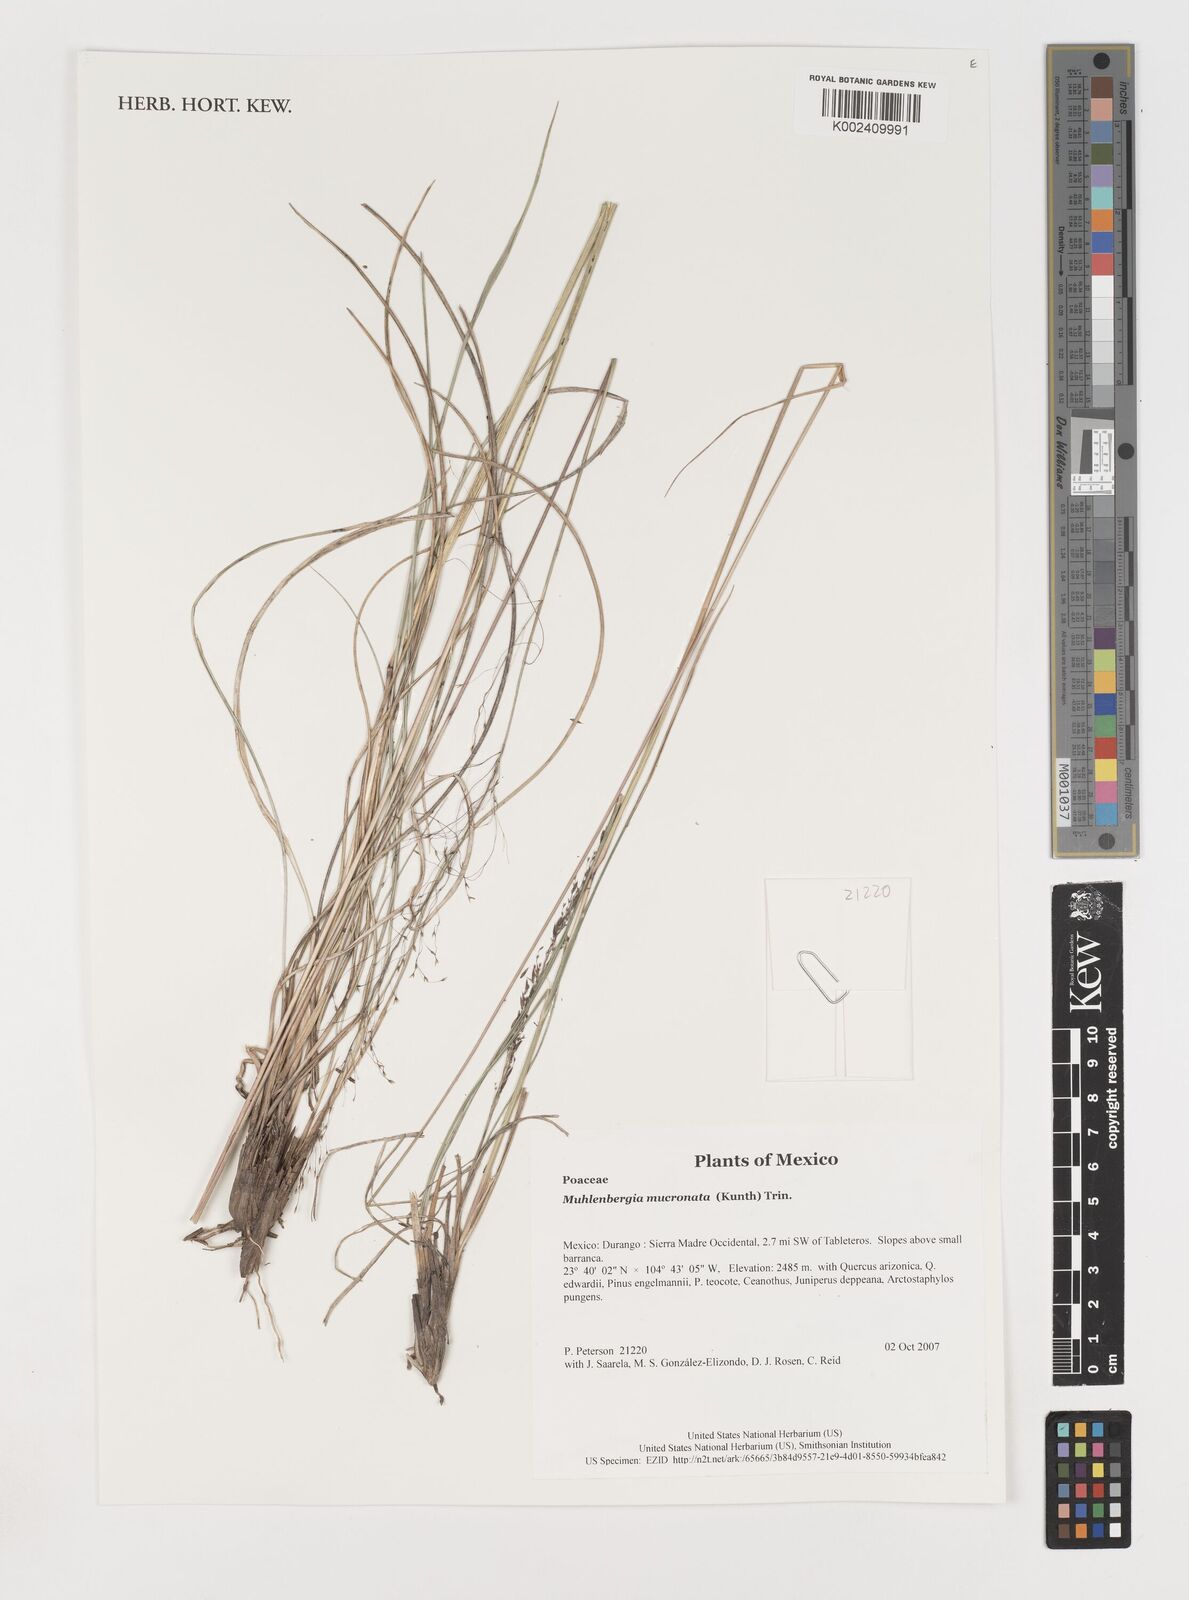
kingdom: Plantae
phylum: Tracheophyta
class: Liliopsida
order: Poales
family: Poaceae
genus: Muhlenbergia
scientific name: Muhlenbergia mucronata
